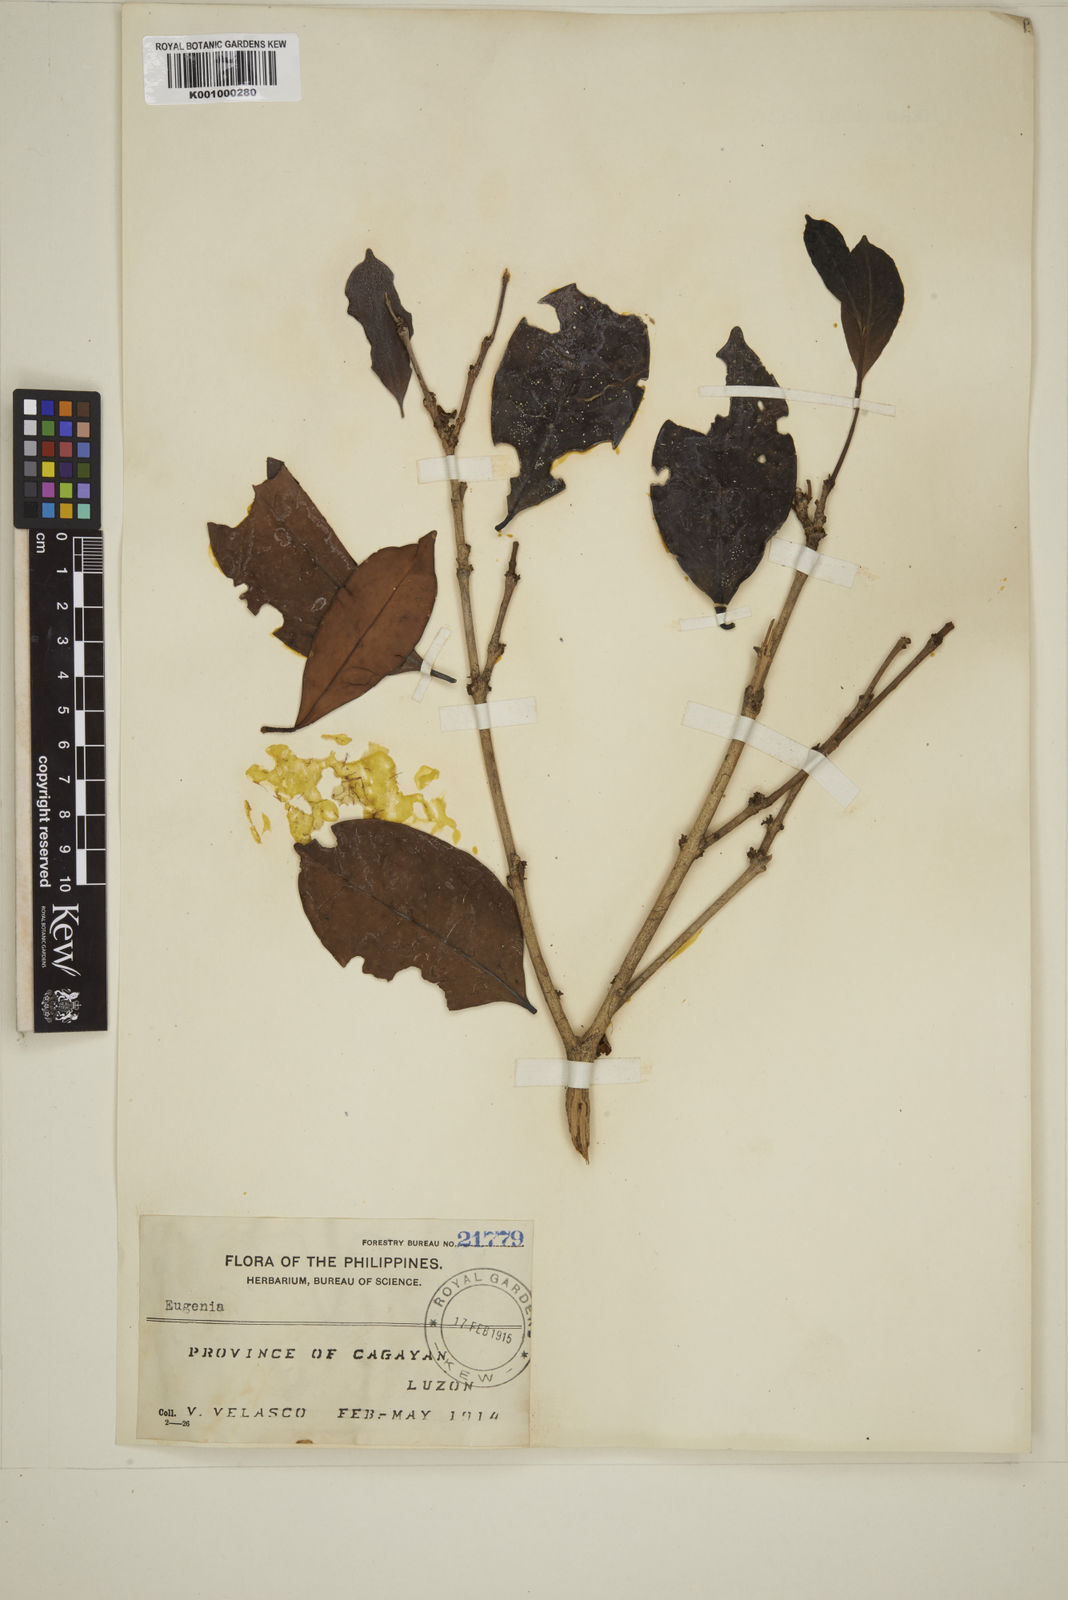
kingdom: Plantae
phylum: Tracheophyta
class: Magnoliopsida
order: Myrtales
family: Myrtaceae
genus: Eugenia
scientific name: Eugenia aherniana
